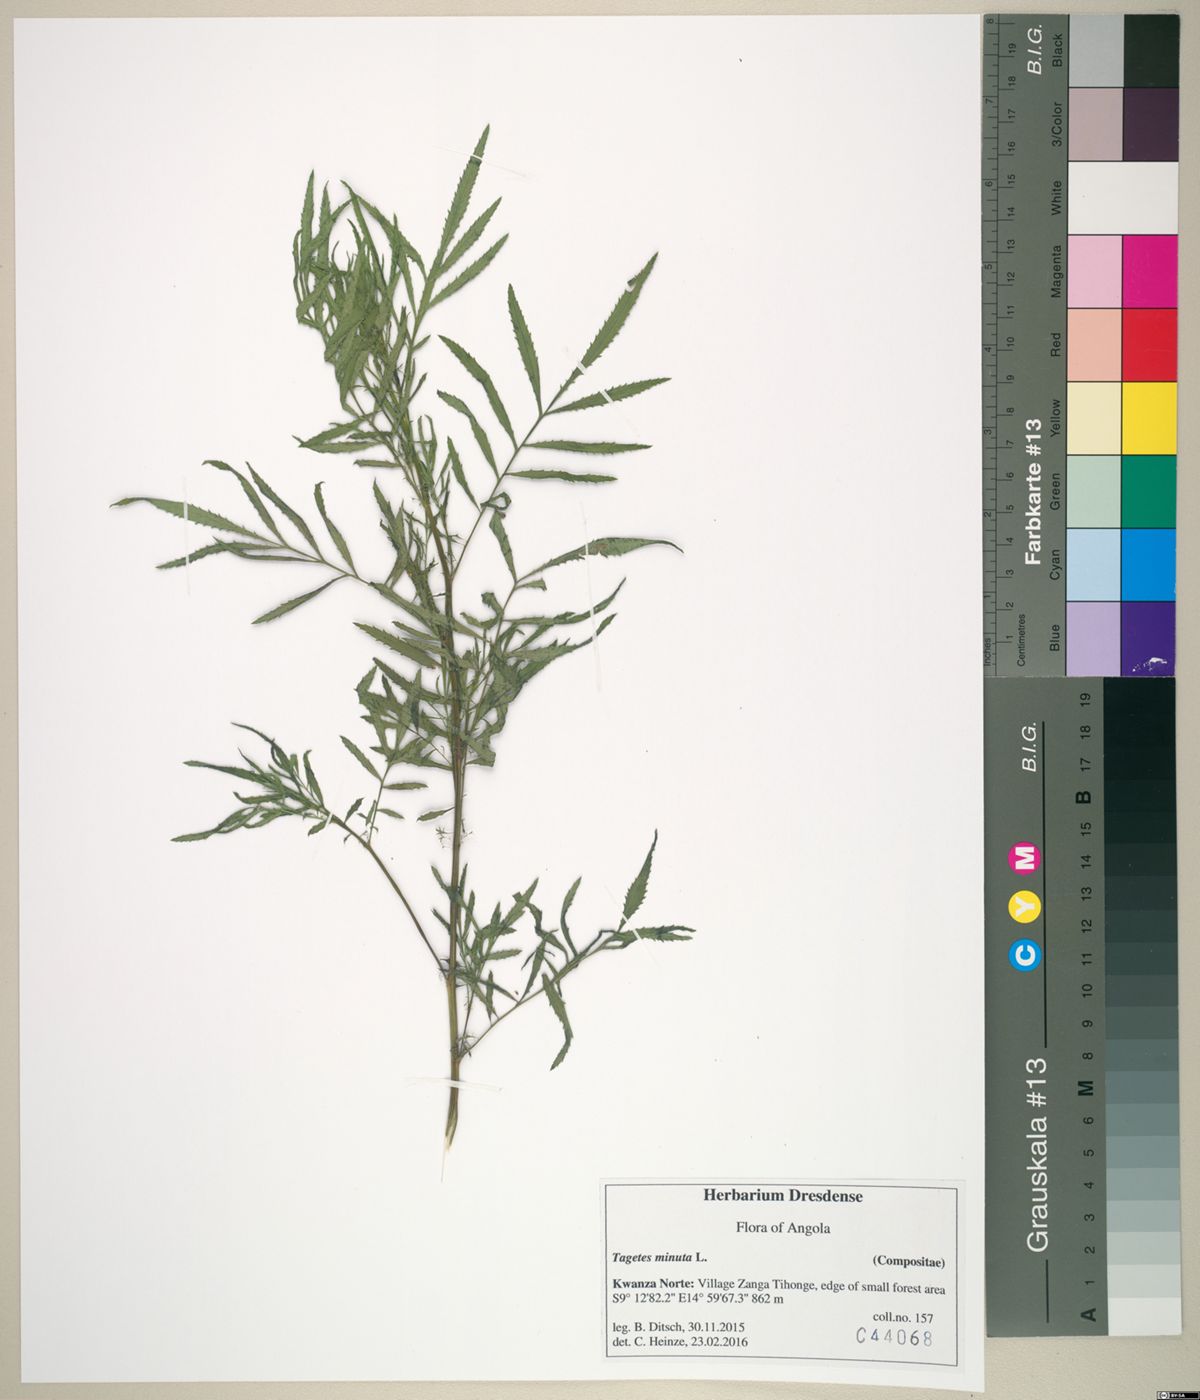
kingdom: Plantae
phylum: Tracheophyta
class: Magnoliopsida
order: Asterales
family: Asteraceae
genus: Tagetes
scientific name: Tagetes minuta
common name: Muster john henry
